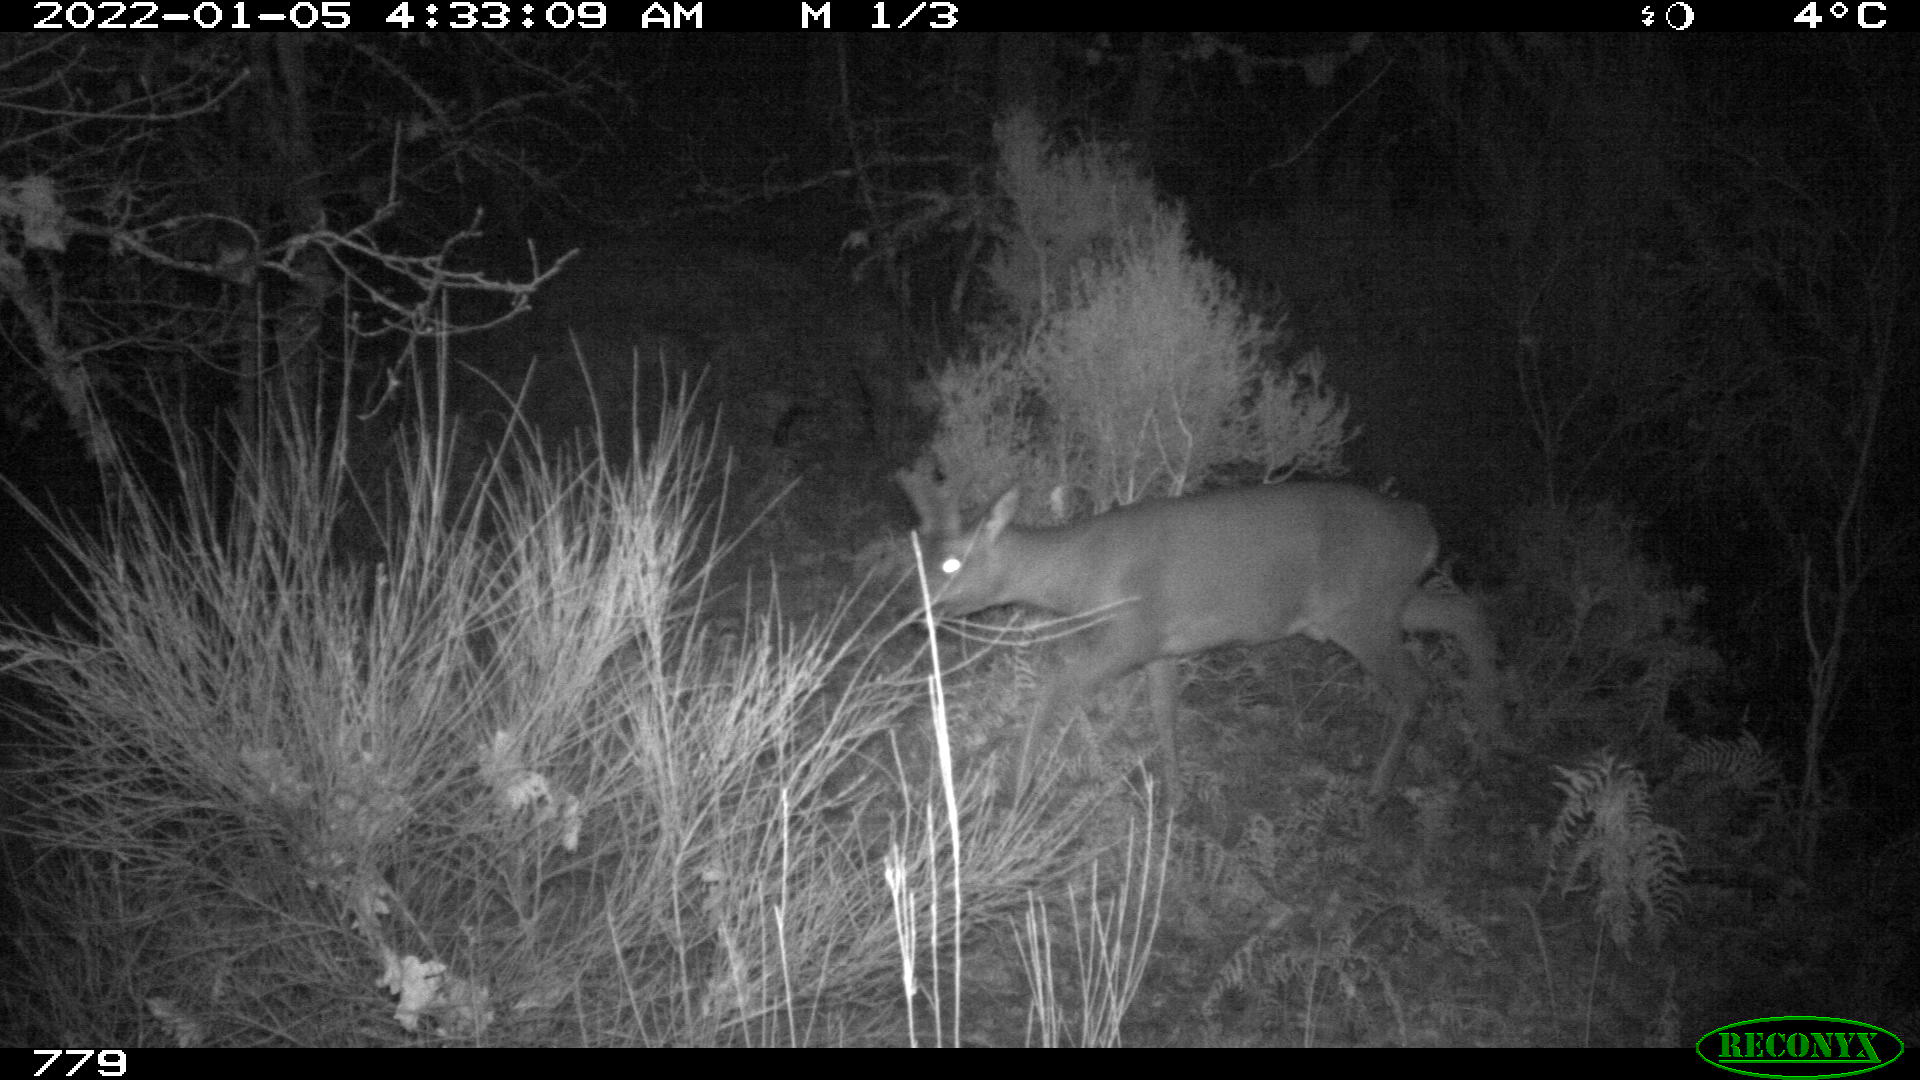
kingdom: Animalia
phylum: Chordata
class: Mammalia
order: Artiodactyla
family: Cervidae
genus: Capreolus
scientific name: Capreolus capreolus
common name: Western roe deer
